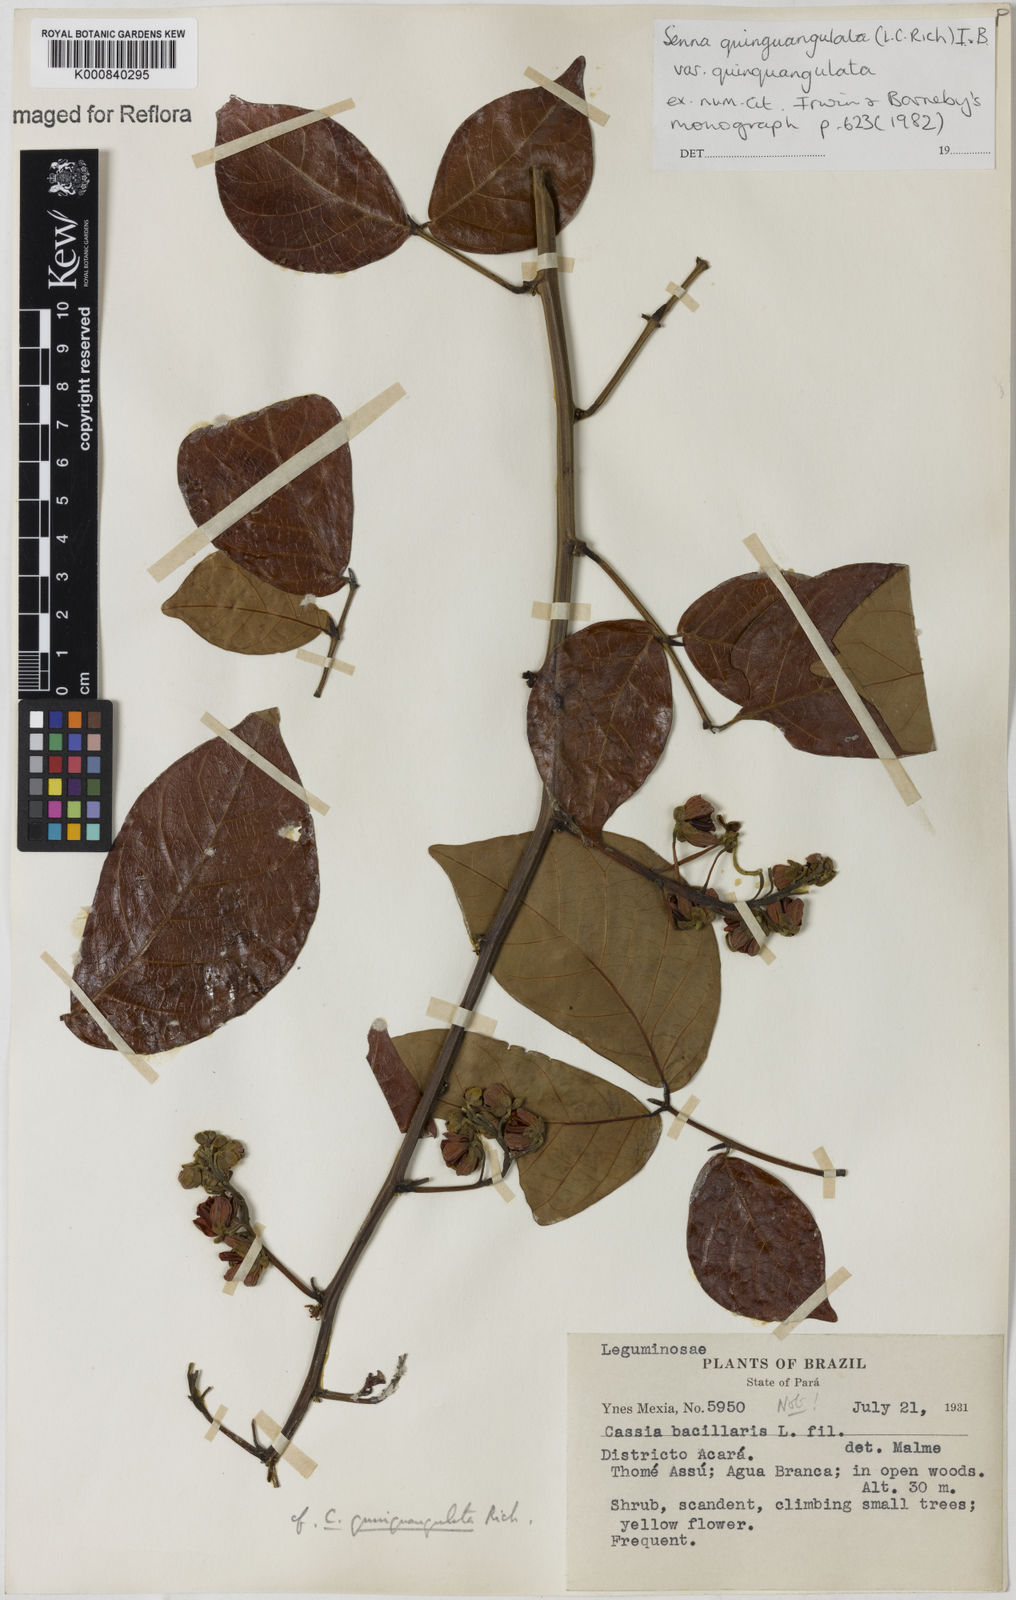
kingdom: Plantae
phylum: Tracheophyta
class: Magnoliopsida
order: Fabales
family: Fabaceae
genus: Senna
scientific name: Senna
